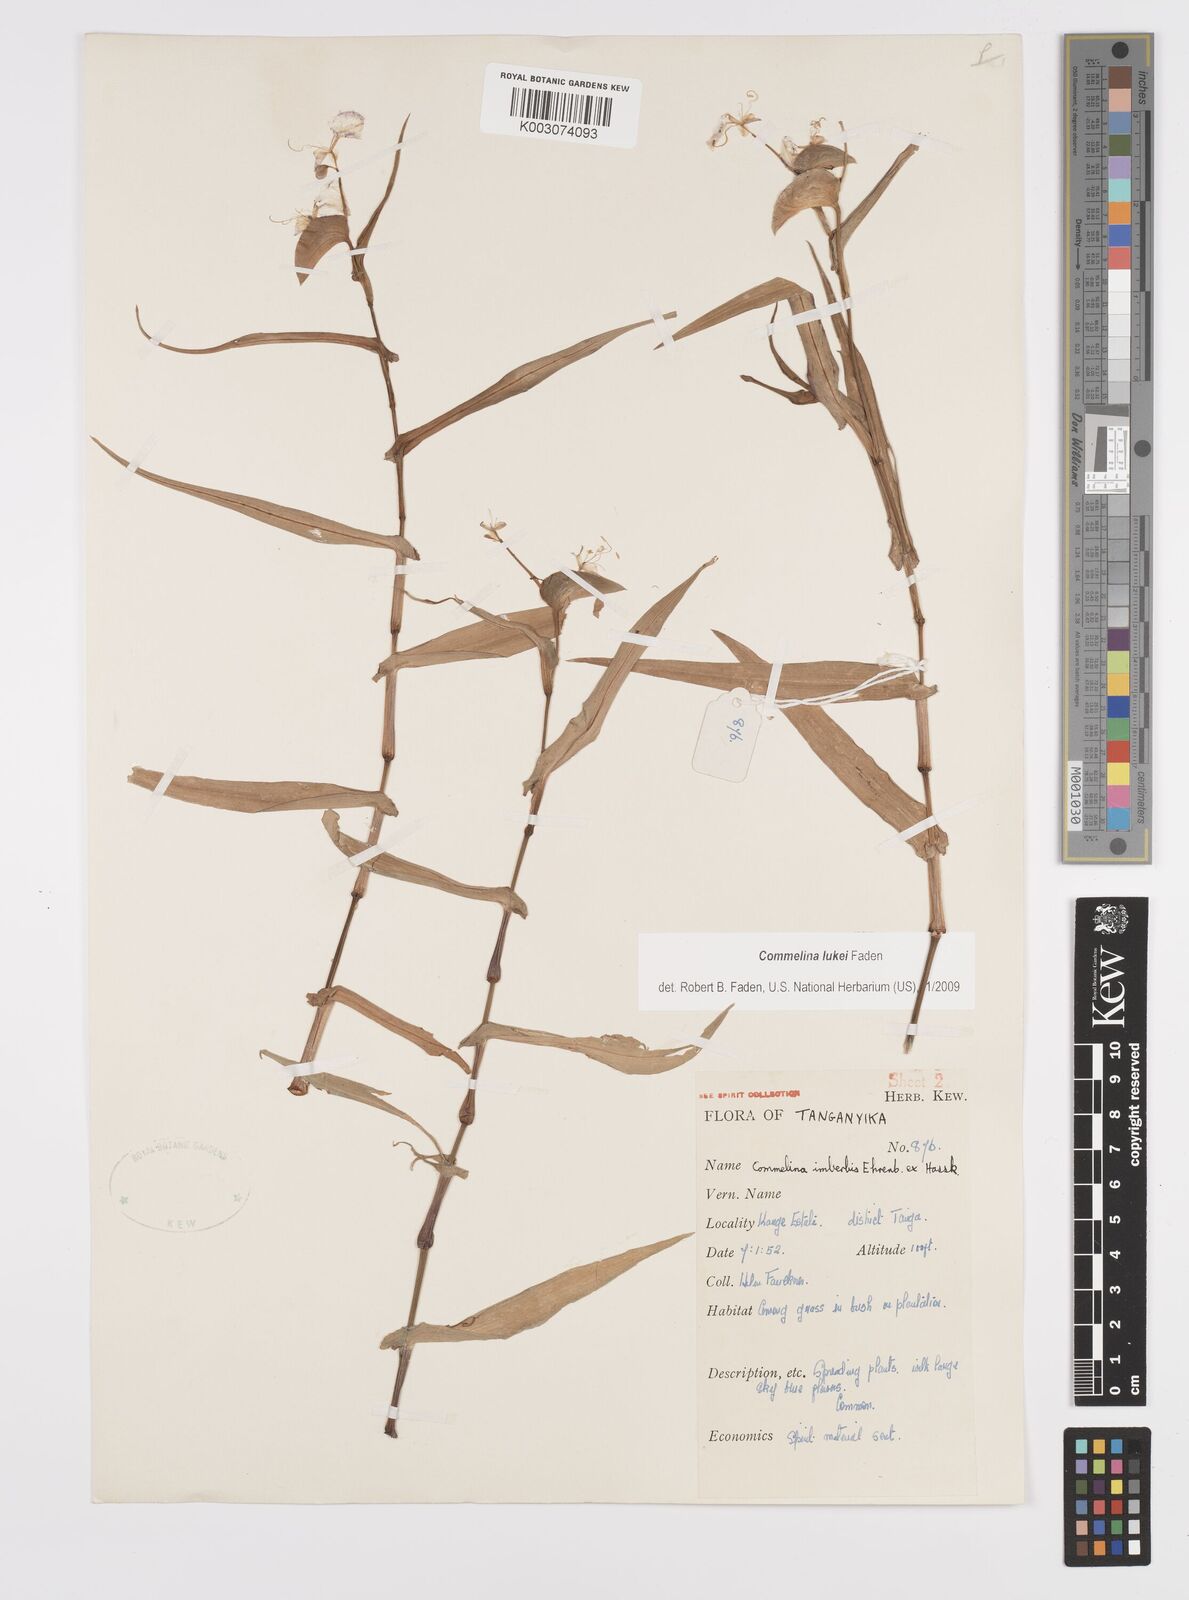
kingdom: Plantae
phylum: Tracheophyta
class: Liliopsida
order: Commelinales
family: Commelinaceae
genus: Commelina
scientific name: Commelina lukei
